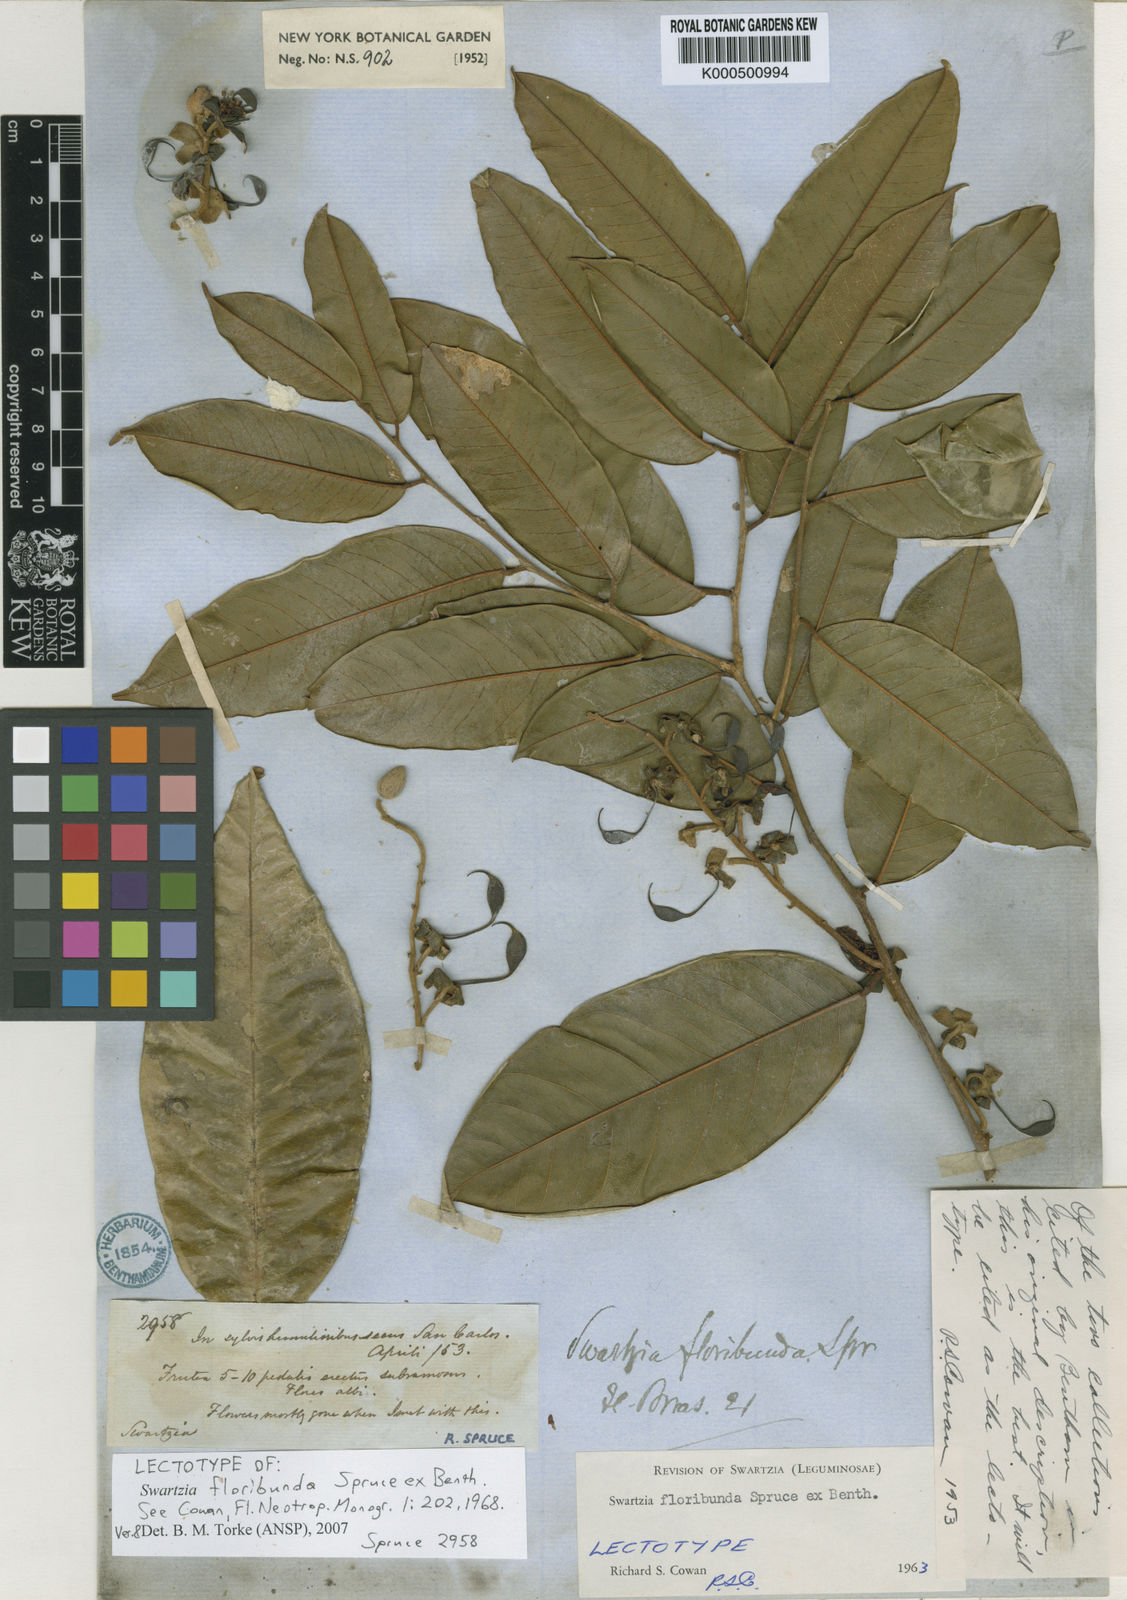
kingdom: Plantae
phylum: Tracheophyta
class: Magnoliopsida
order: Fabales
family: Fabaceae
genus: Swartzia
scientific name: Swartzia floribunda
